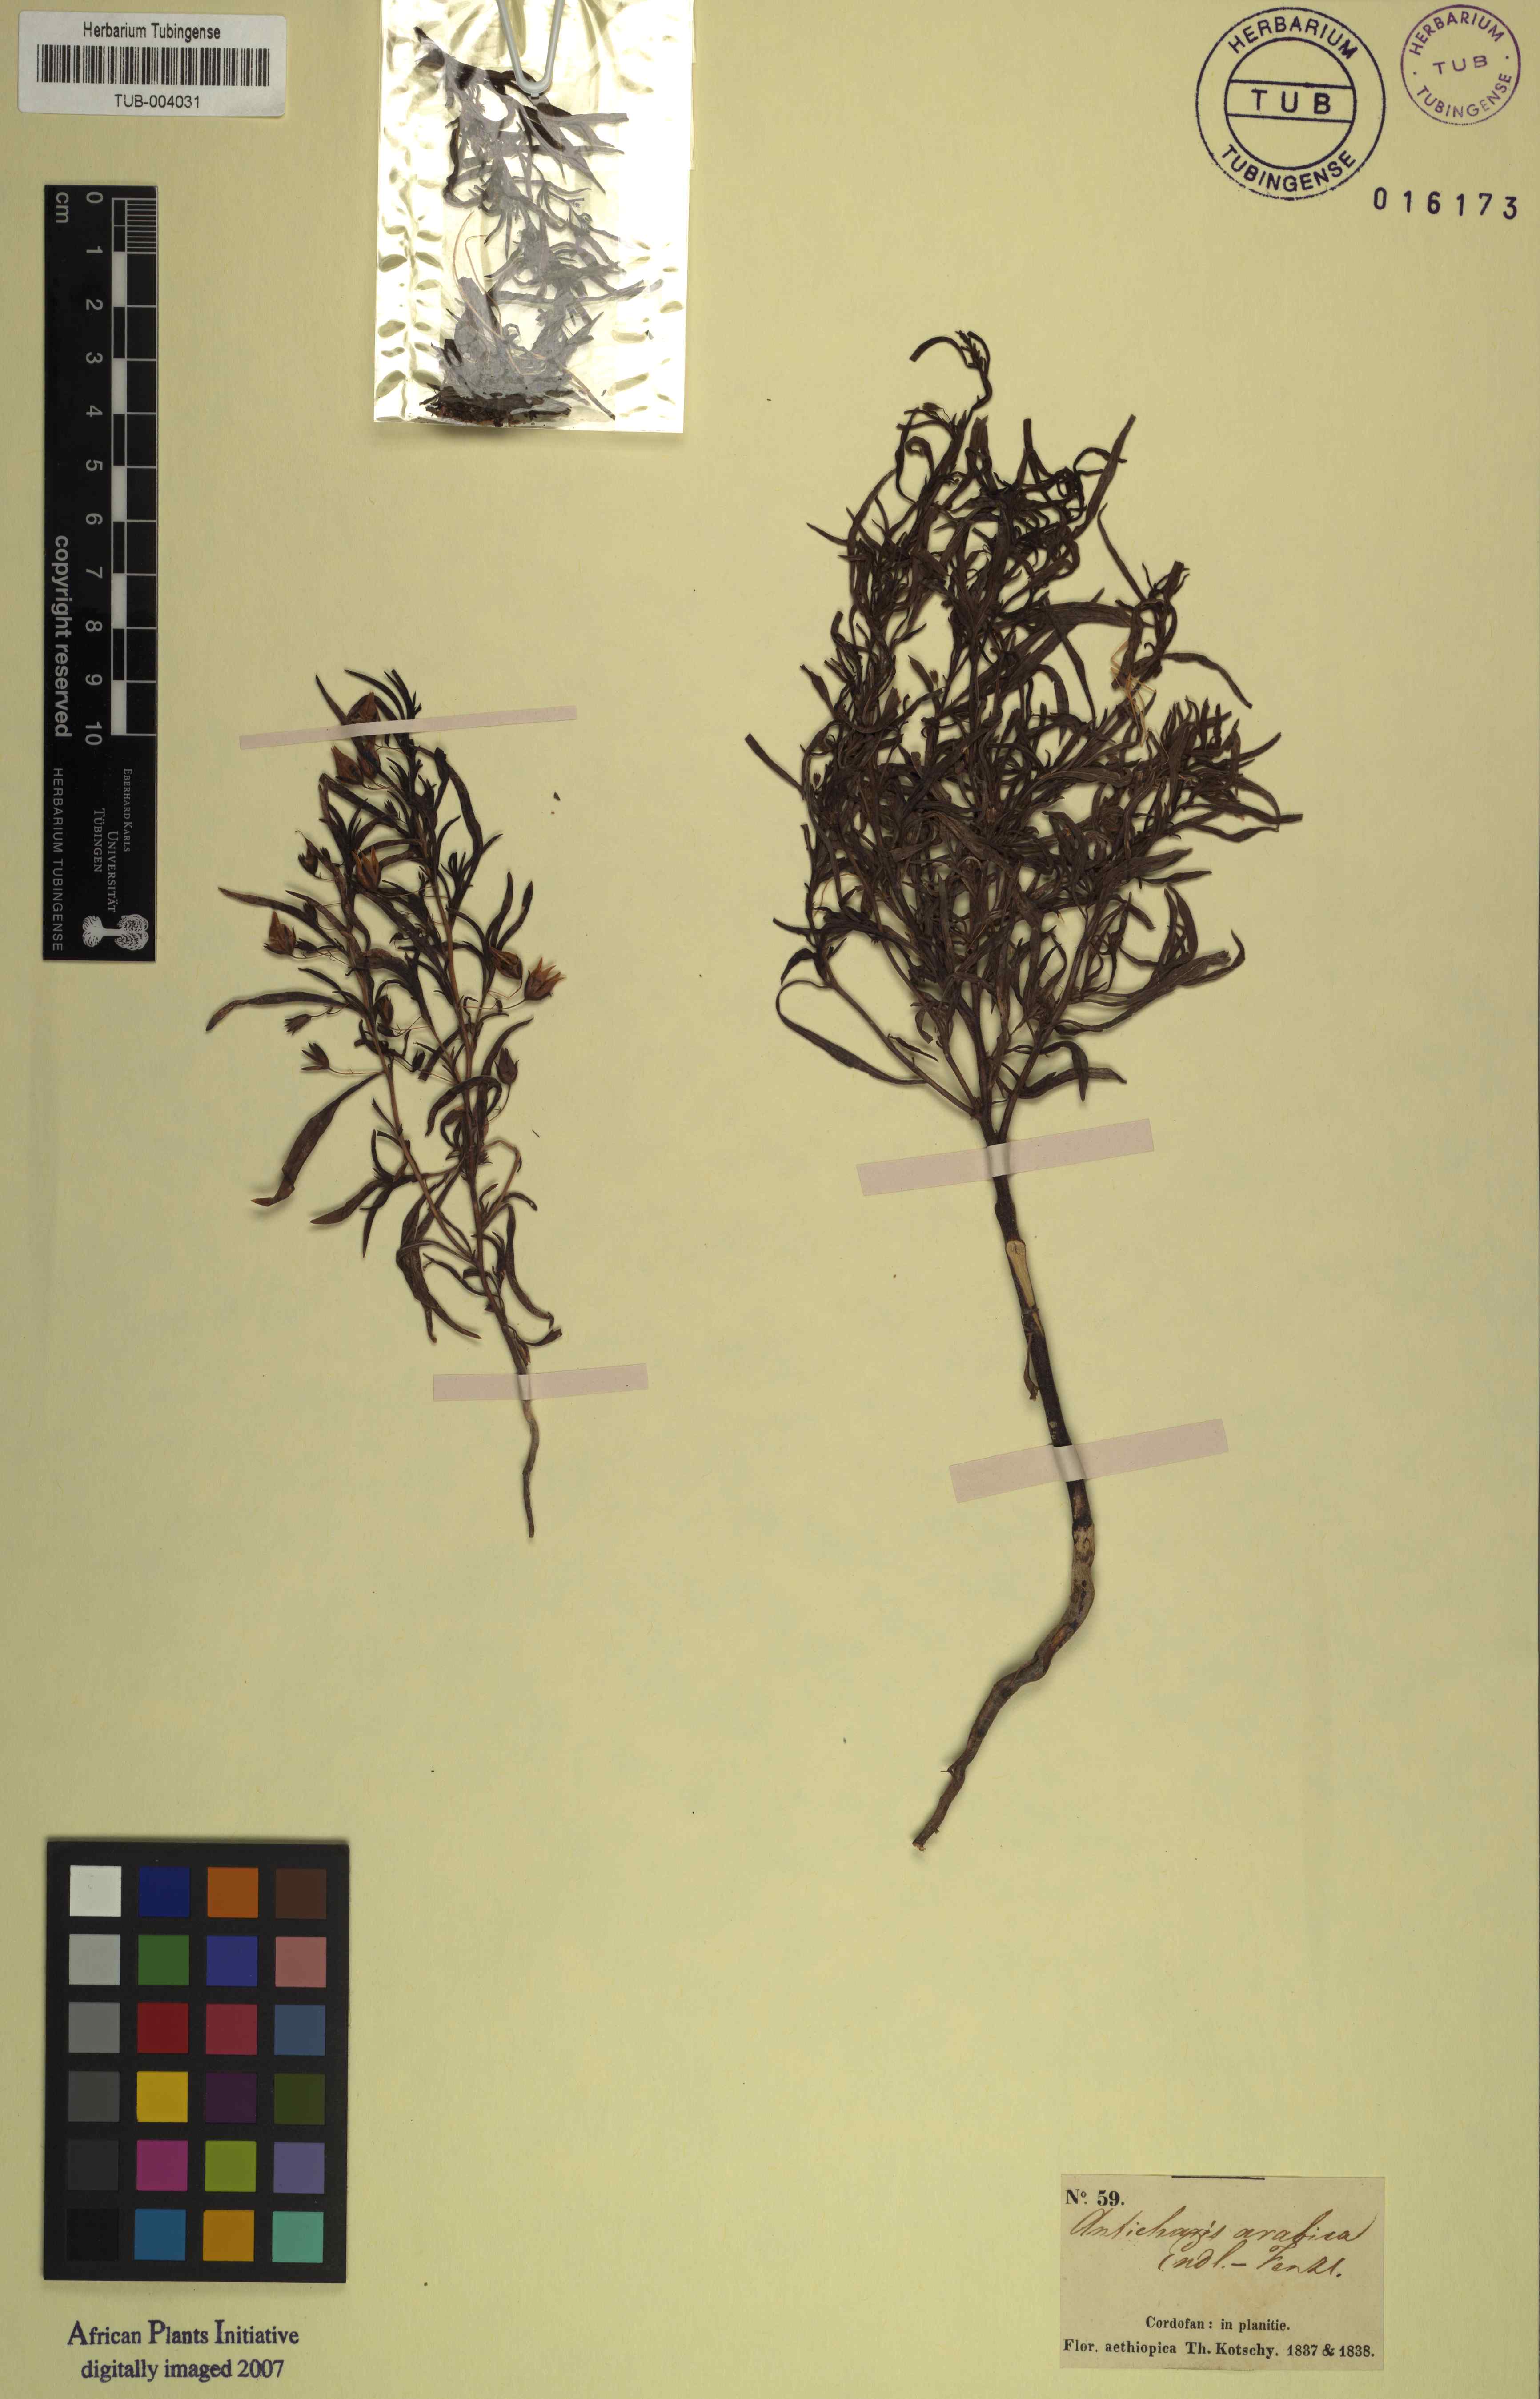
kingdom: Plantae
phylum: Tracheophyta
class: Magnoliopsida
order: Lamiales
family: Scrophulariaceae
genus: Anticharis
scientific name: Anticharis arabica
